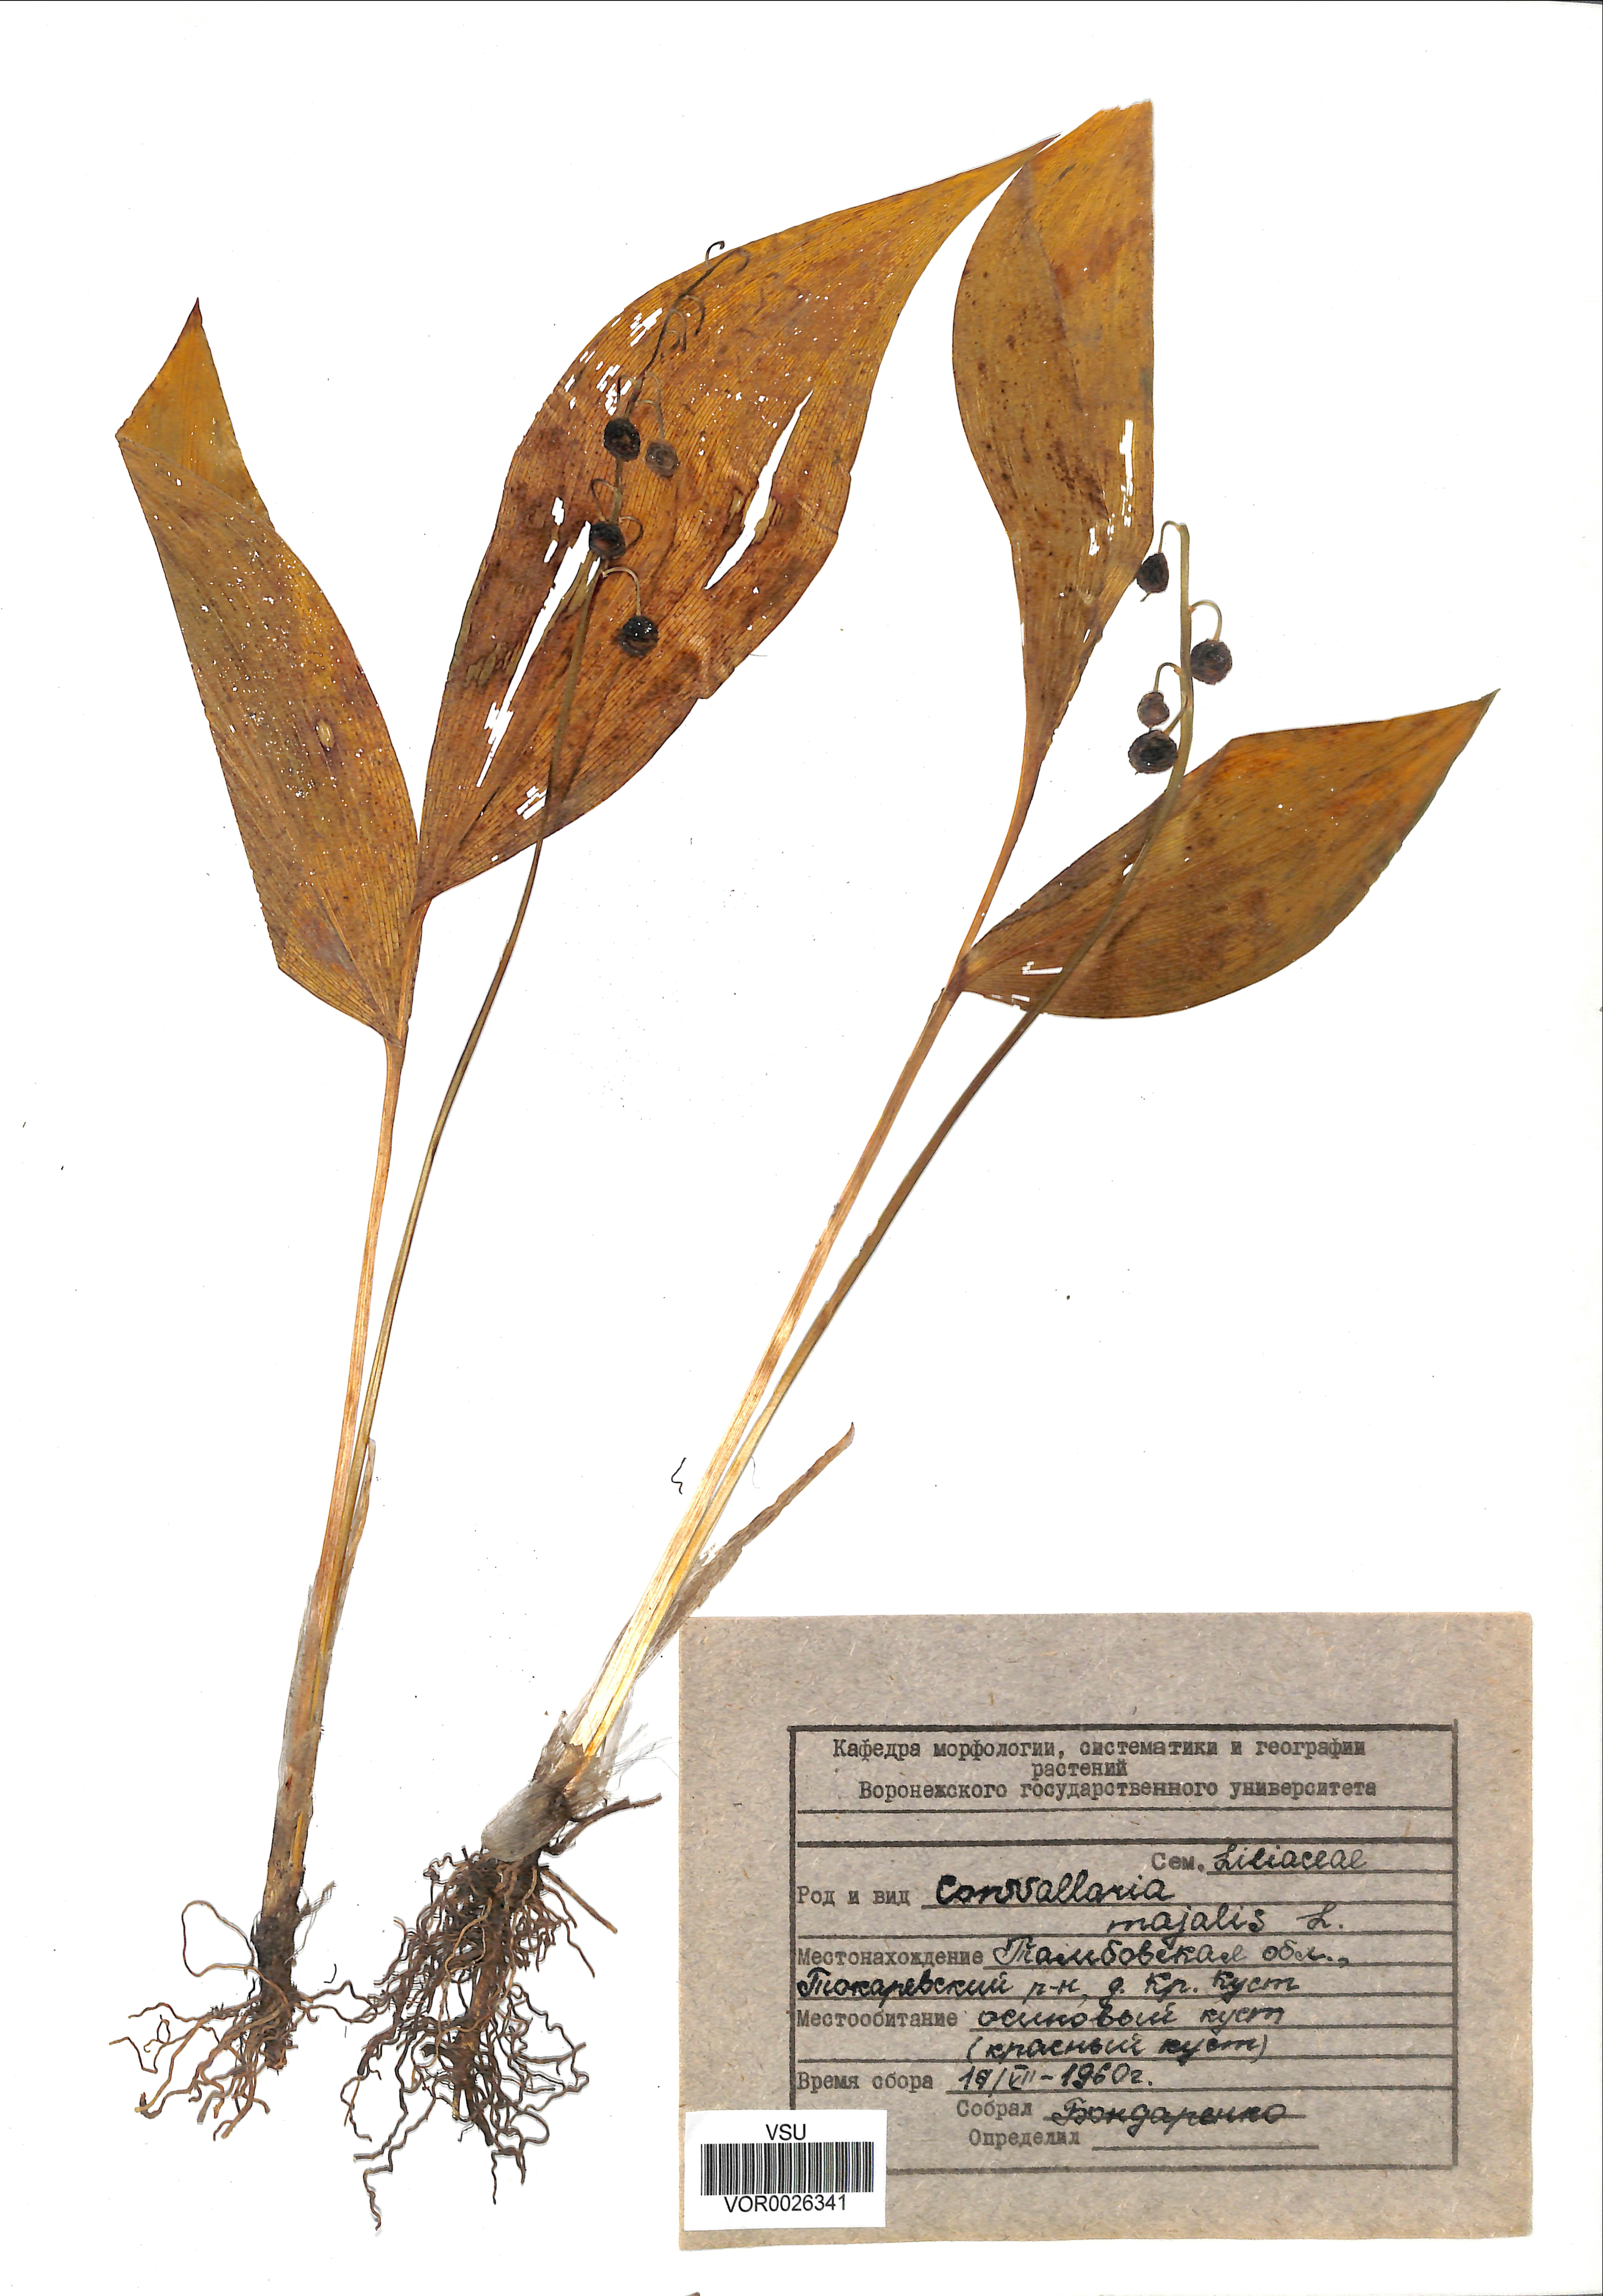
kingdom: Plantae
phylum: Tracheophyta
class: Liliopsida
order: Asparagales
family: Asparagaceae
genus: Convallaria
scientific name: Convallaria majalis
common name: Lily-of-the-valley
